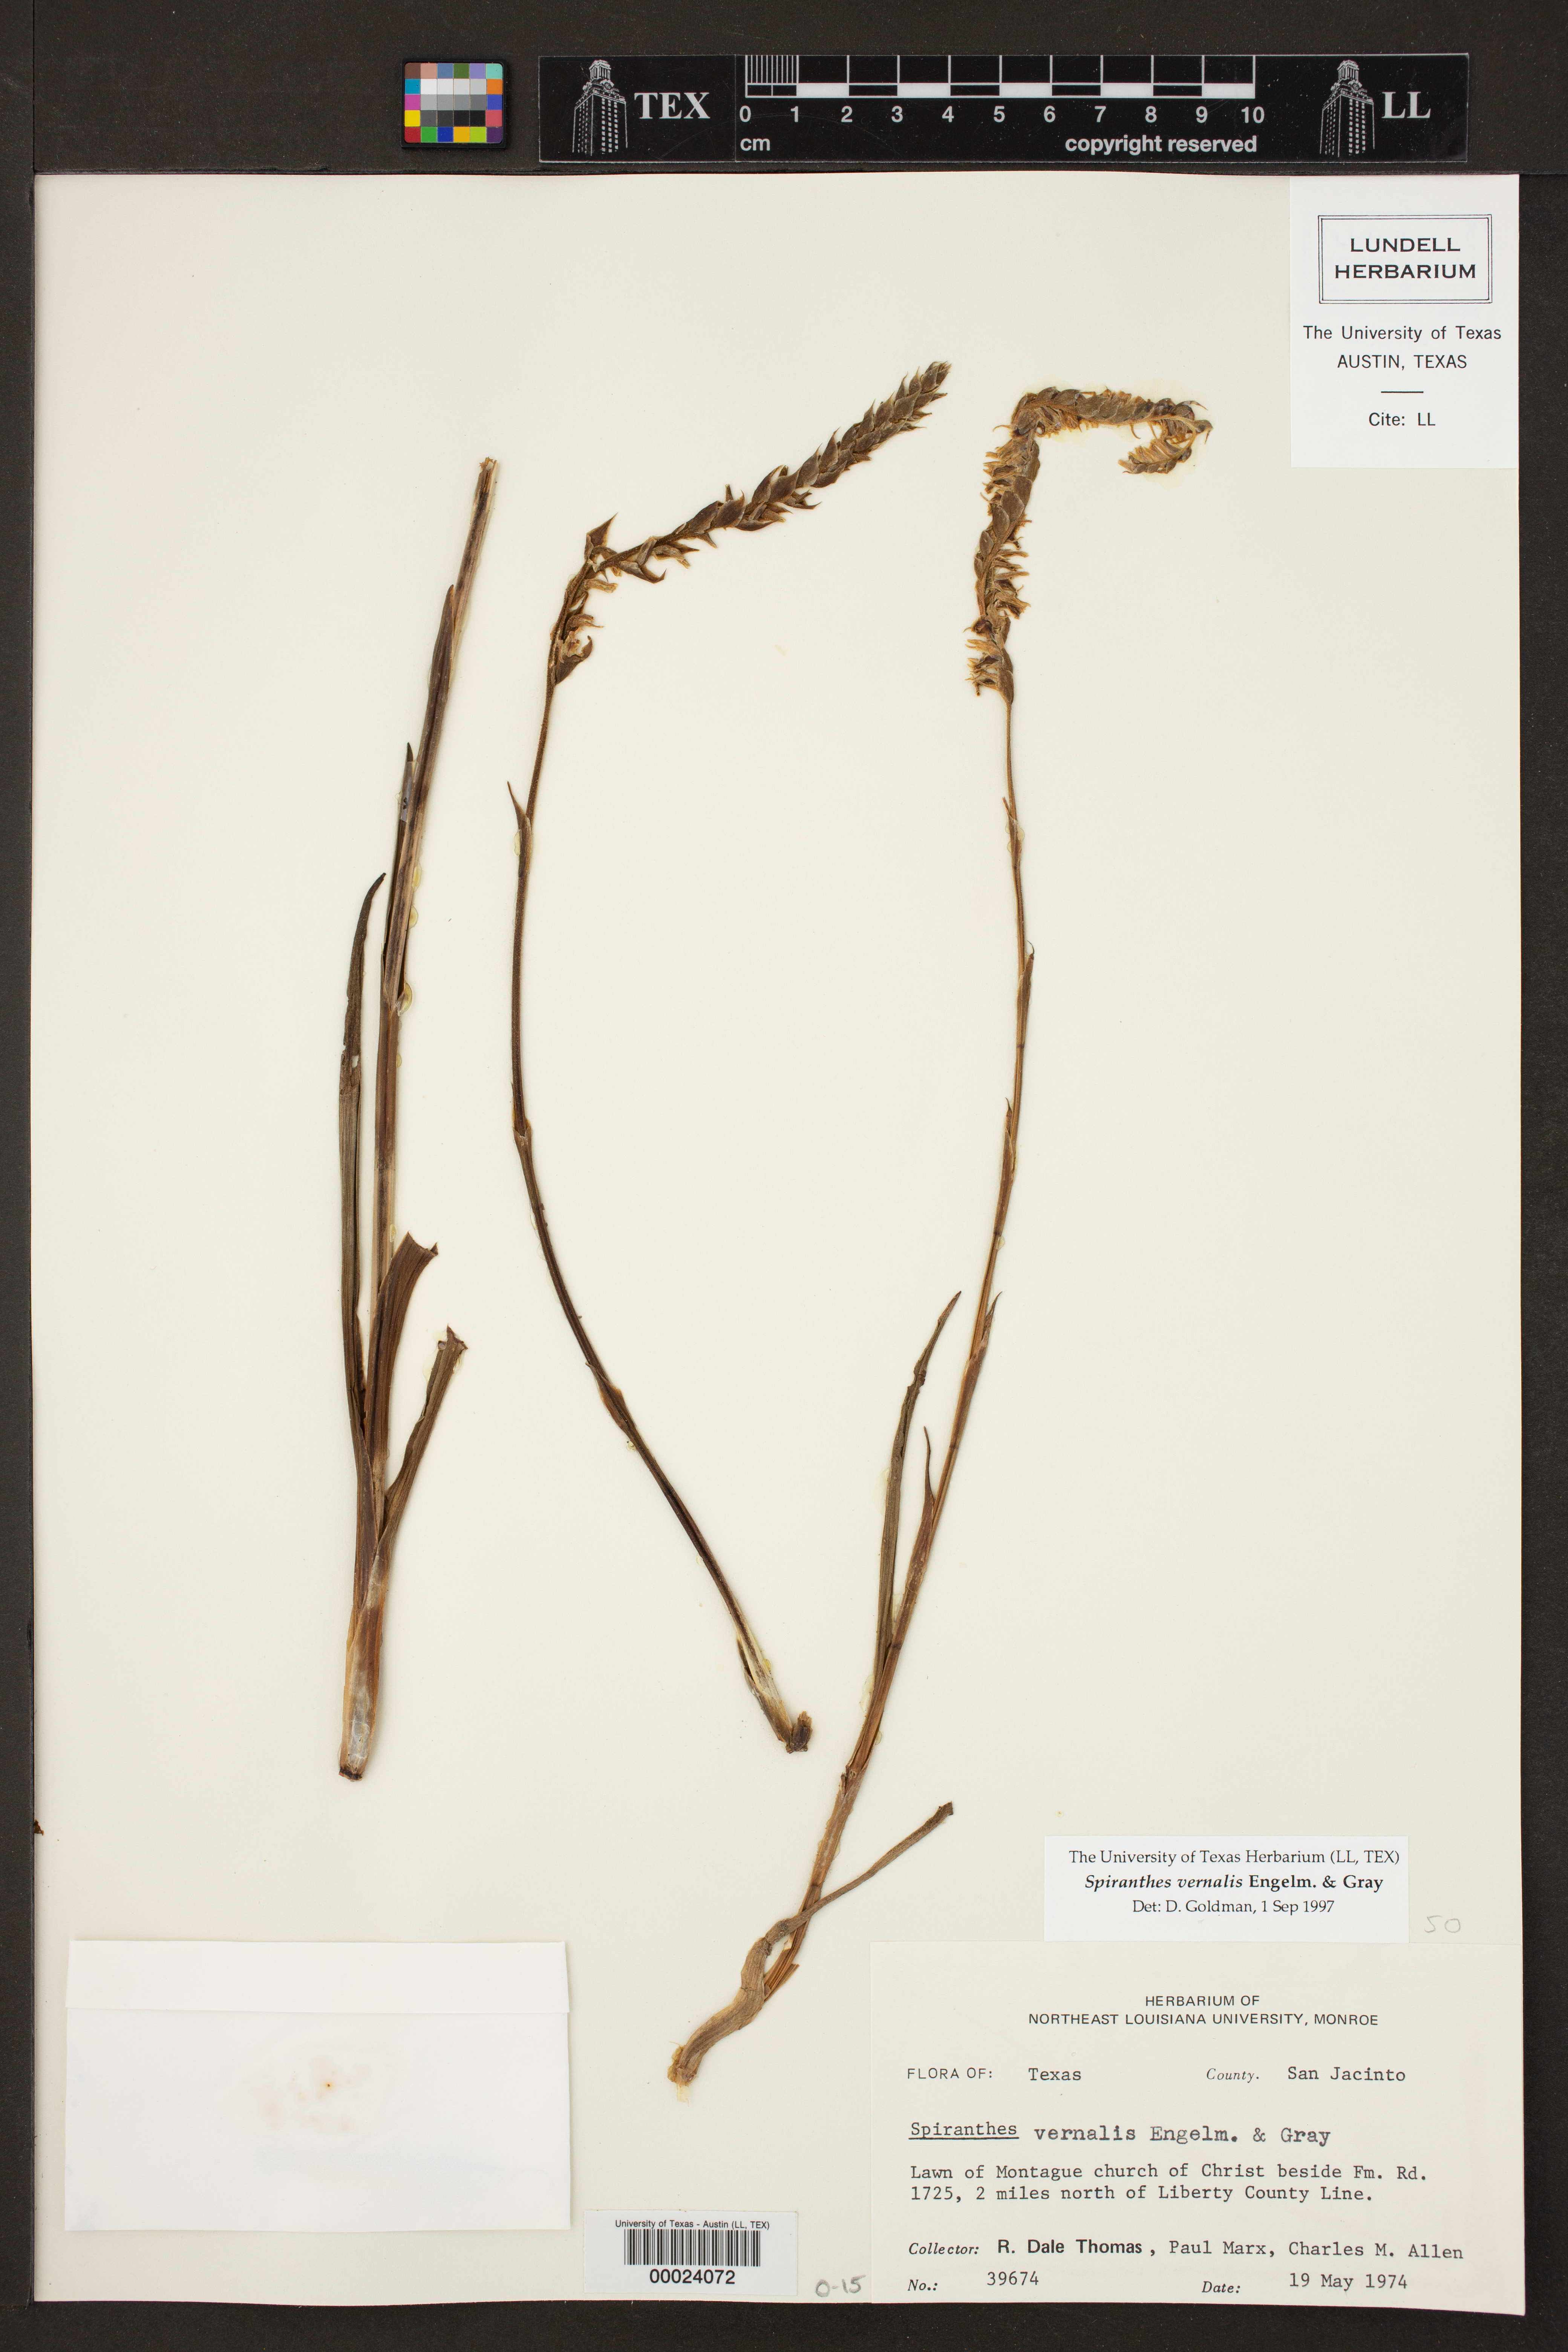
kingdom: Plantae
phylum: Tracheophyta
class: Liliopsida
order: Asparagales
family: Orchidaceae
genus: Spiranthes
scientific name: Spiranthes vernalis
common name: Spring ladies'-tresses
